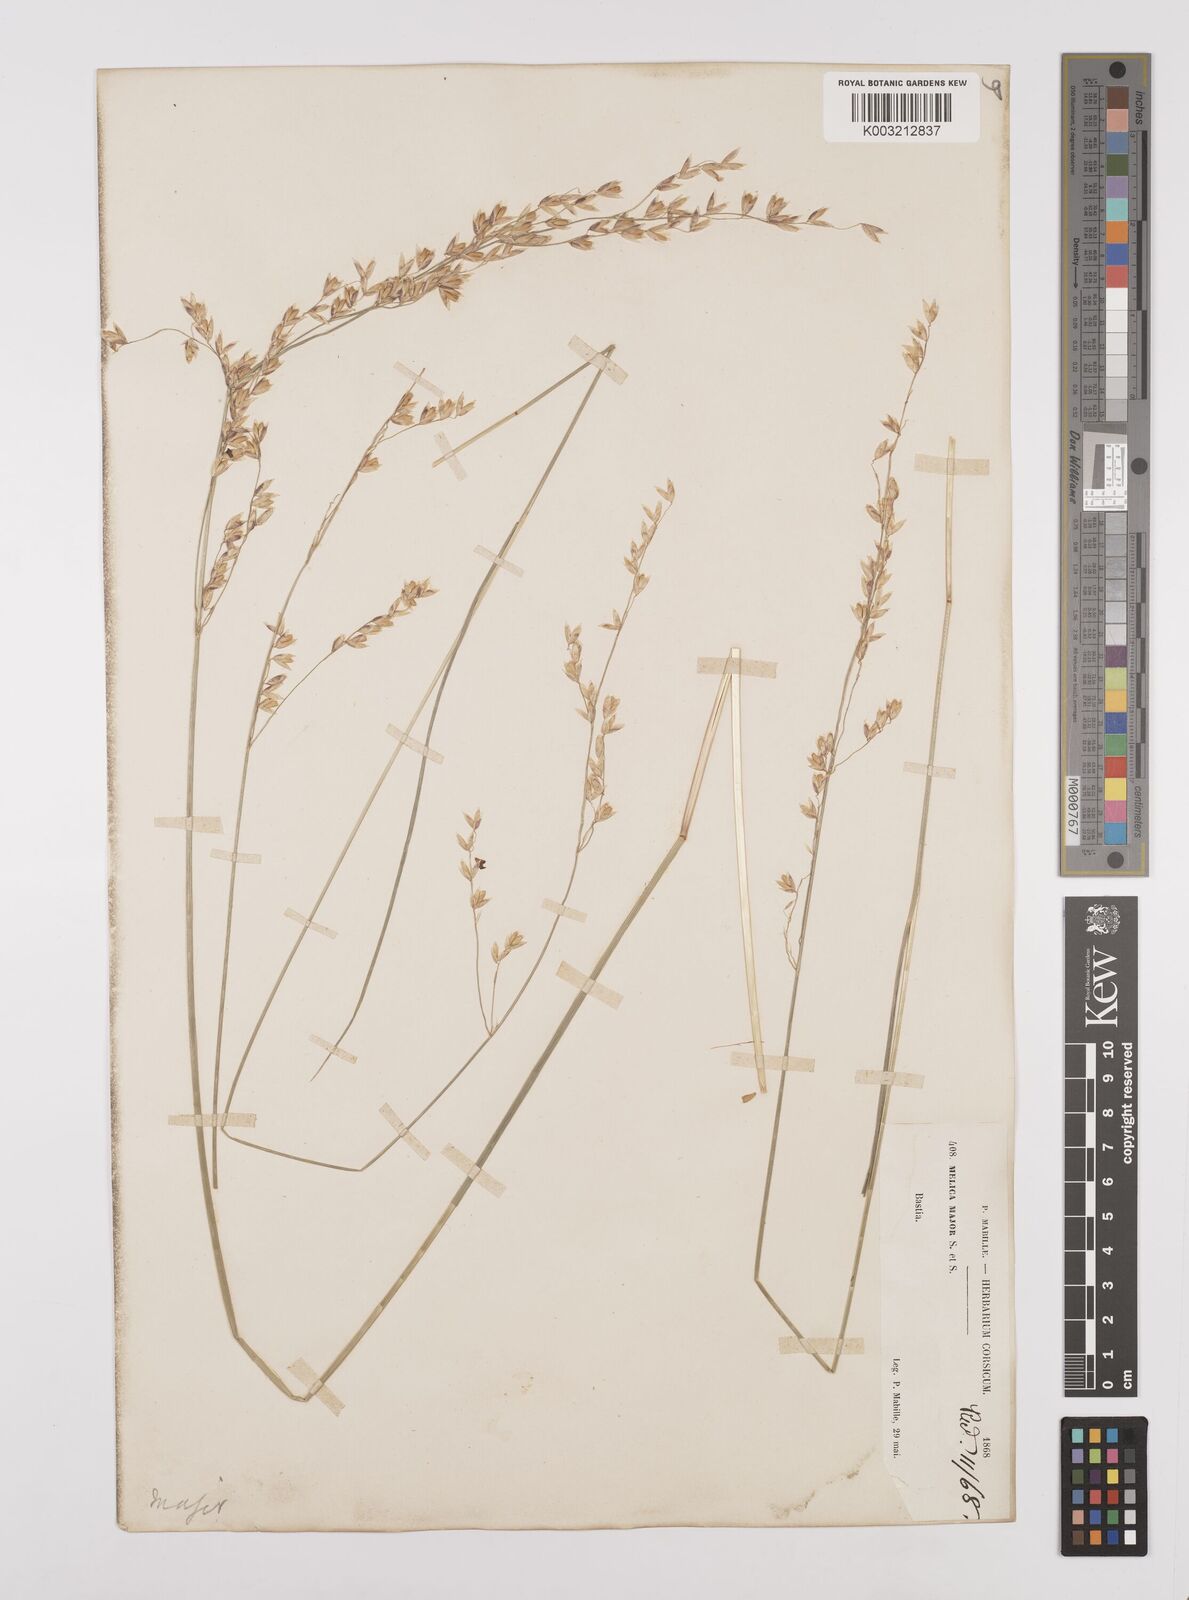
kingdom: Plantae
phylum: Tracheophyta
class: Liliopsida
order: Poales
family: Poaceae
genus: Melica
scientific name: Melica minuta
